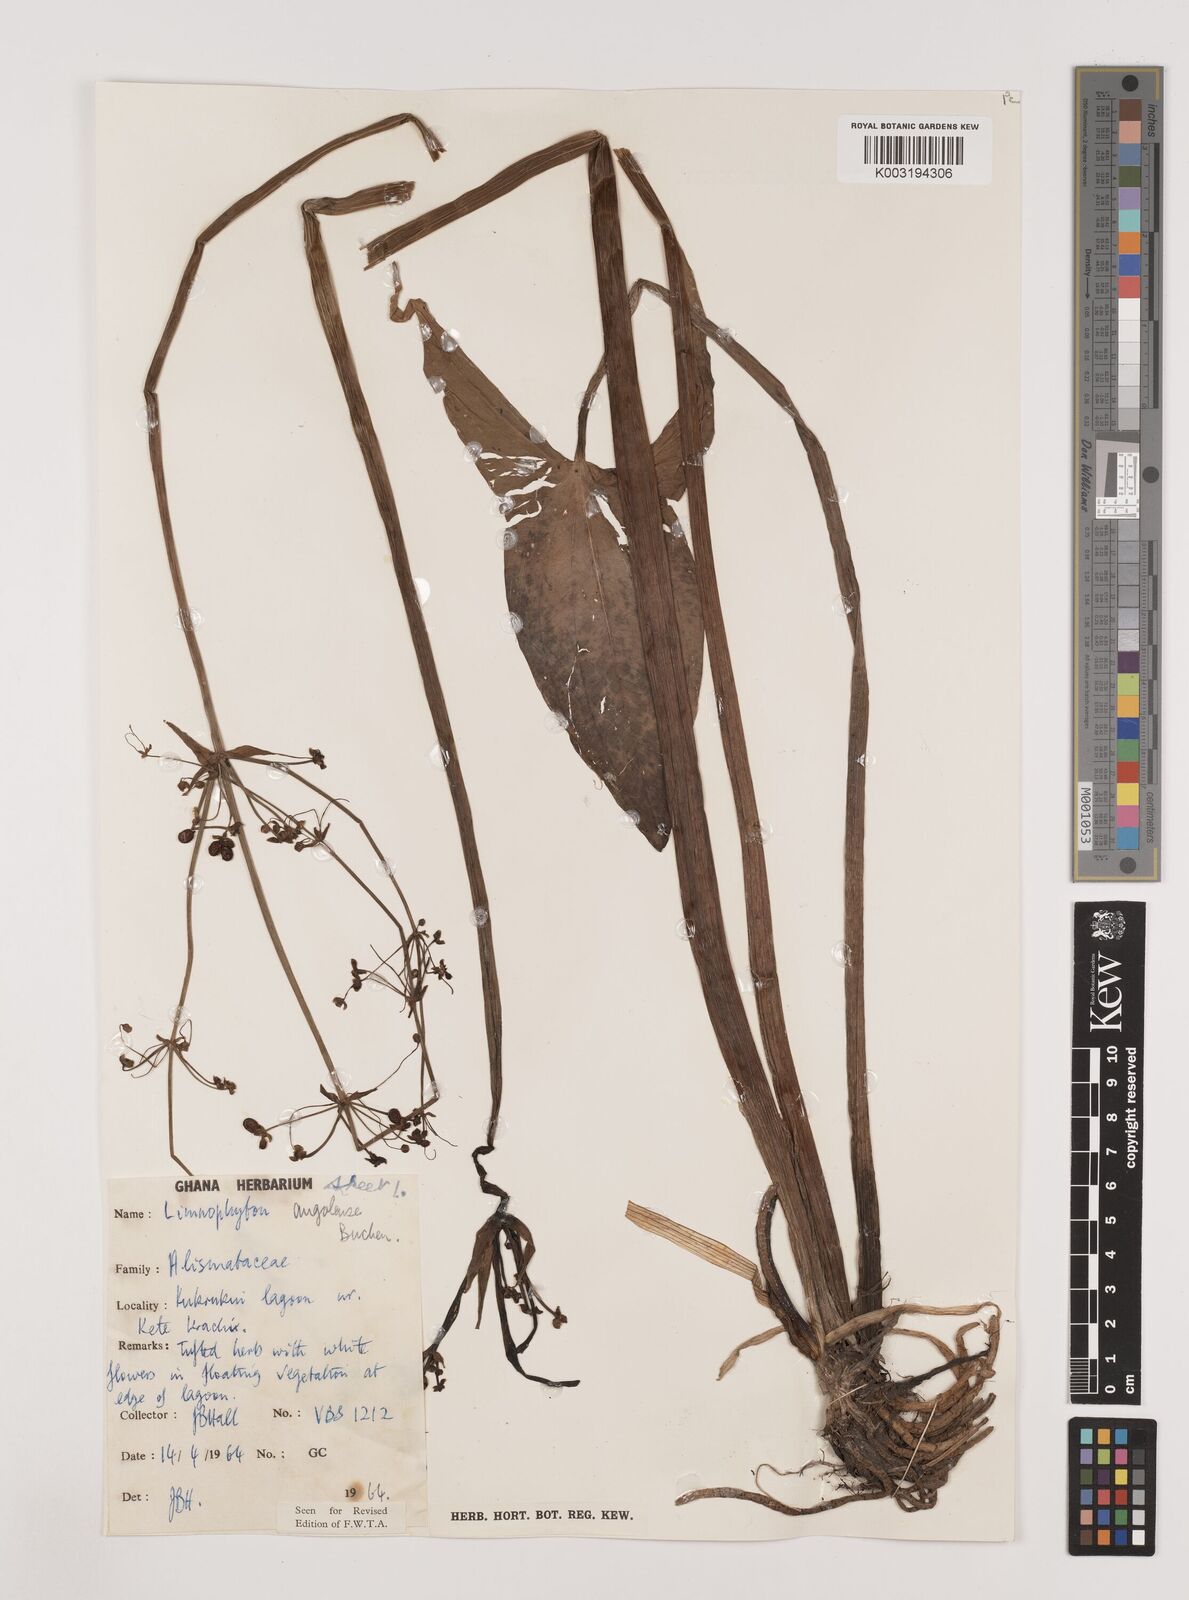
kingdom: Plantae
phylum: Tracheophyta
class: Liliopsida
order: Alismatales
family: Alismataceae
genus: Limnophyton
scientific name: Limnophyton angolense
